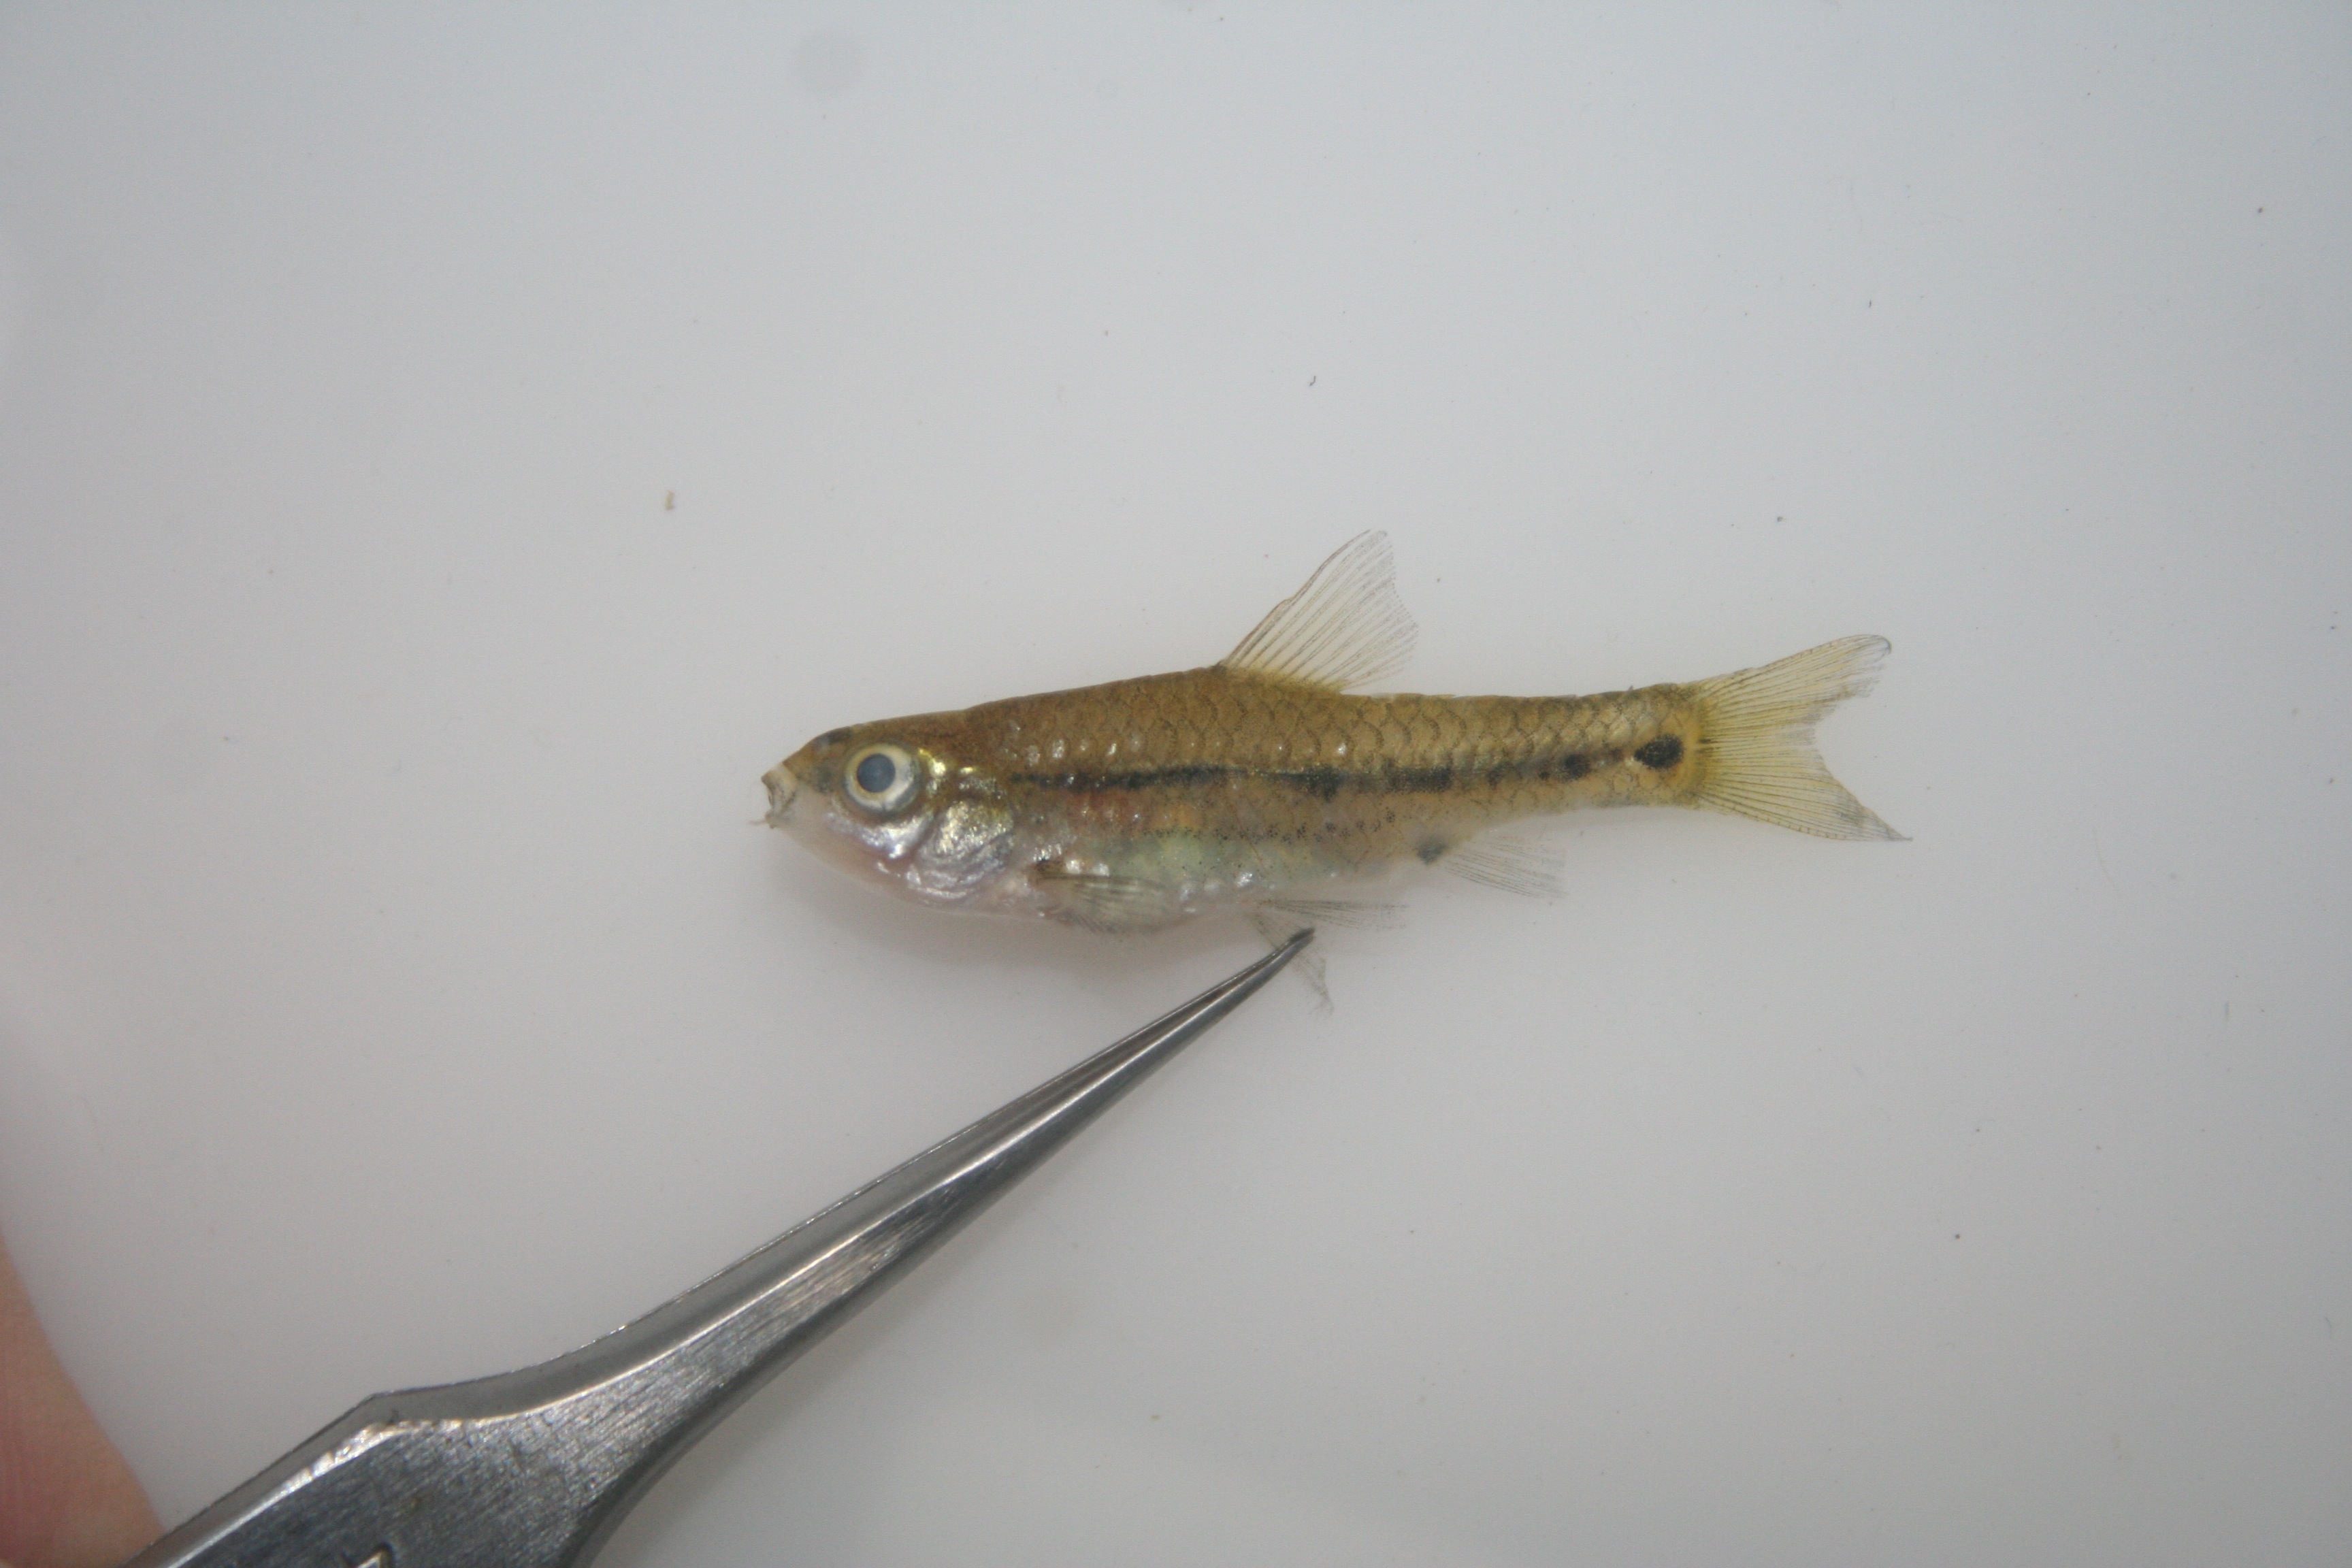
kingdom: Animalia
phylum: Chordata
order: Cypriniformes
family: Cyprinidae
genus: Barbus
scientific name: Barbus
